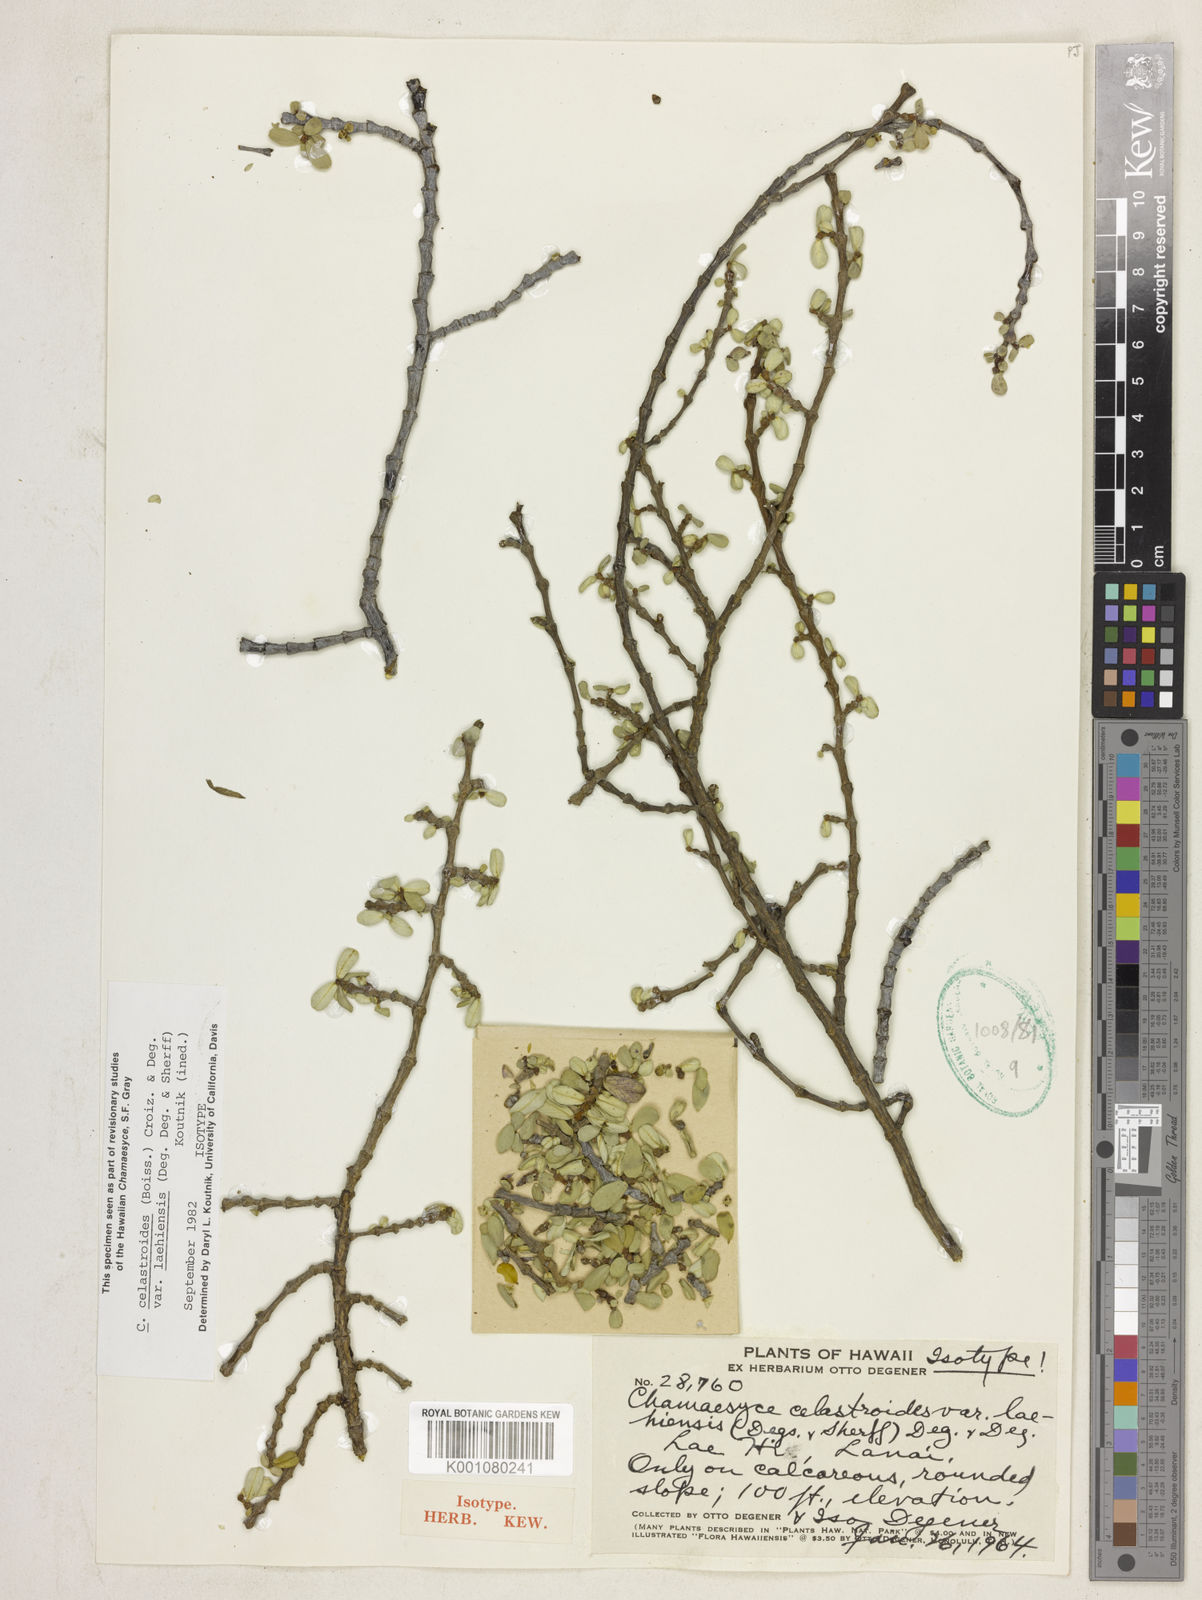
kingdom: Plantae
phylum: Tracheophyta
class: Magnoliopsida
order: Malpighiales
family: Euphorbiaceae
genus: Euphorbia
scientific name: Euphorbia celastroides
